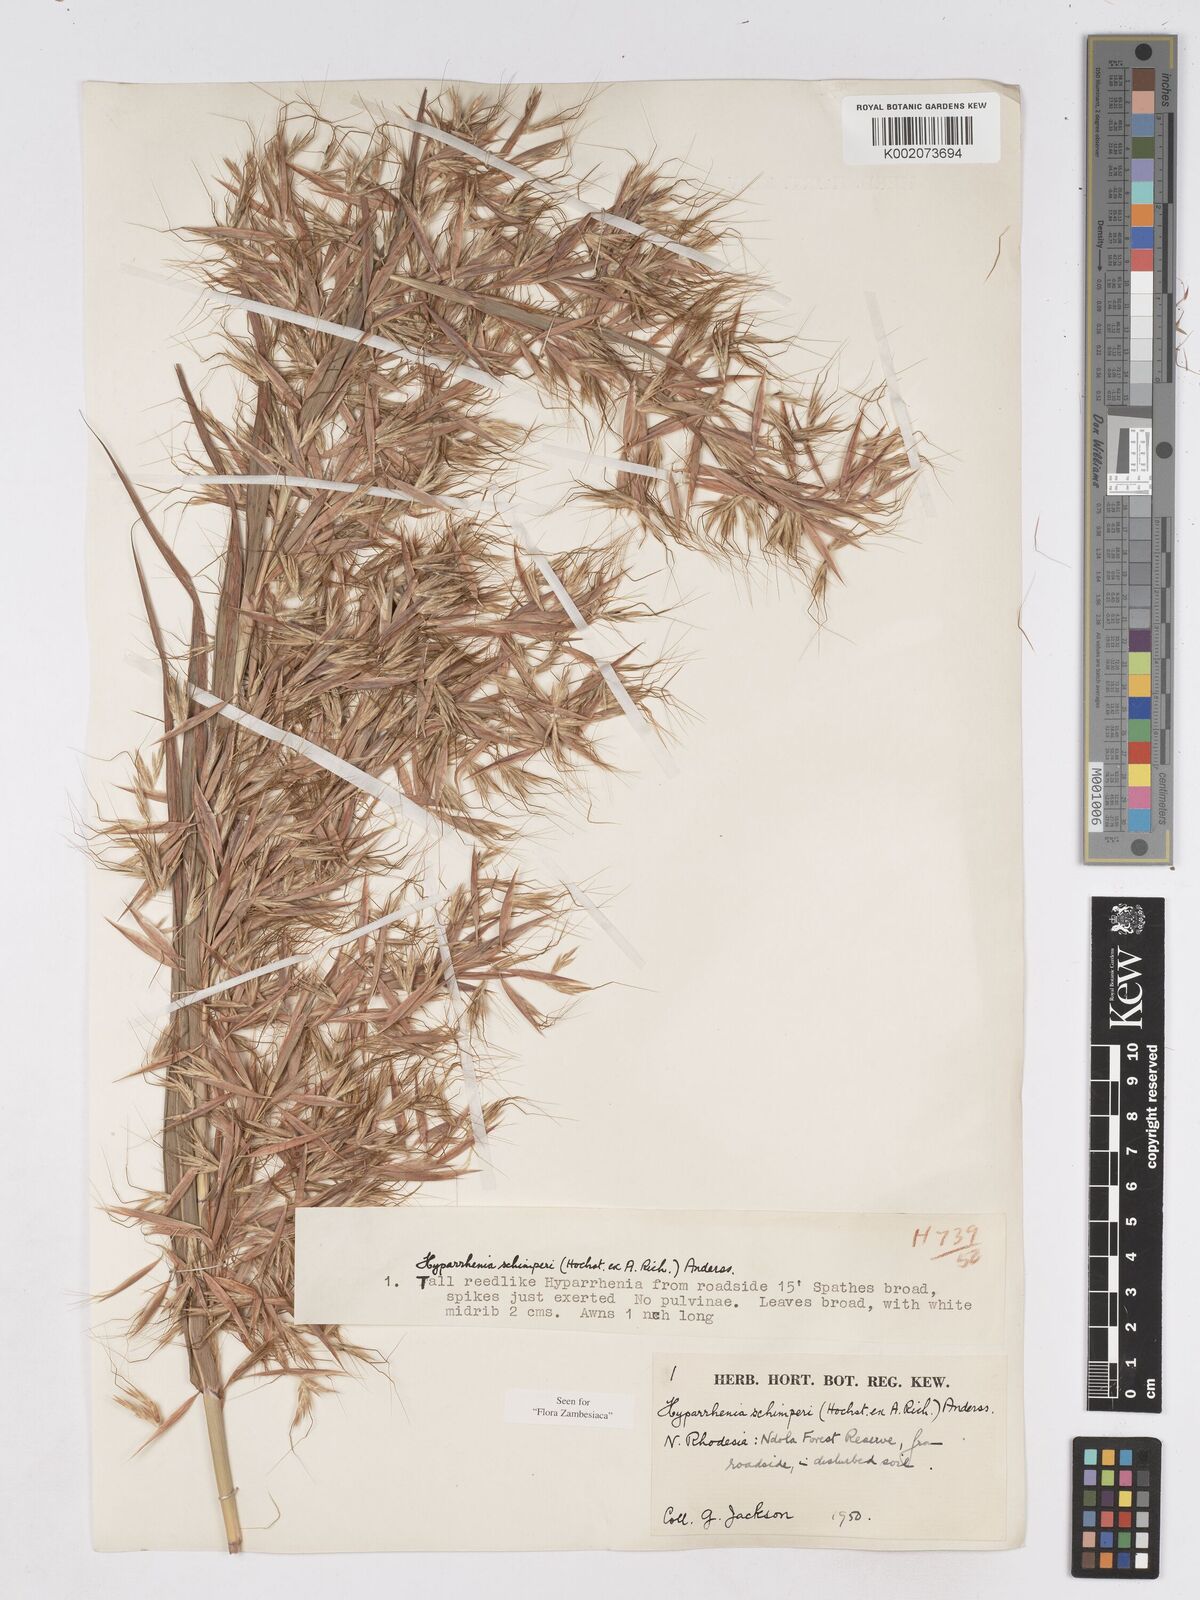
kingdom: Plantae
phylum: Tracheophyta
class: Liliopsida
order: Poales
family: Poaceae
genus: Hyparrhenia
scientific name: Hyparrhenia schimperi
